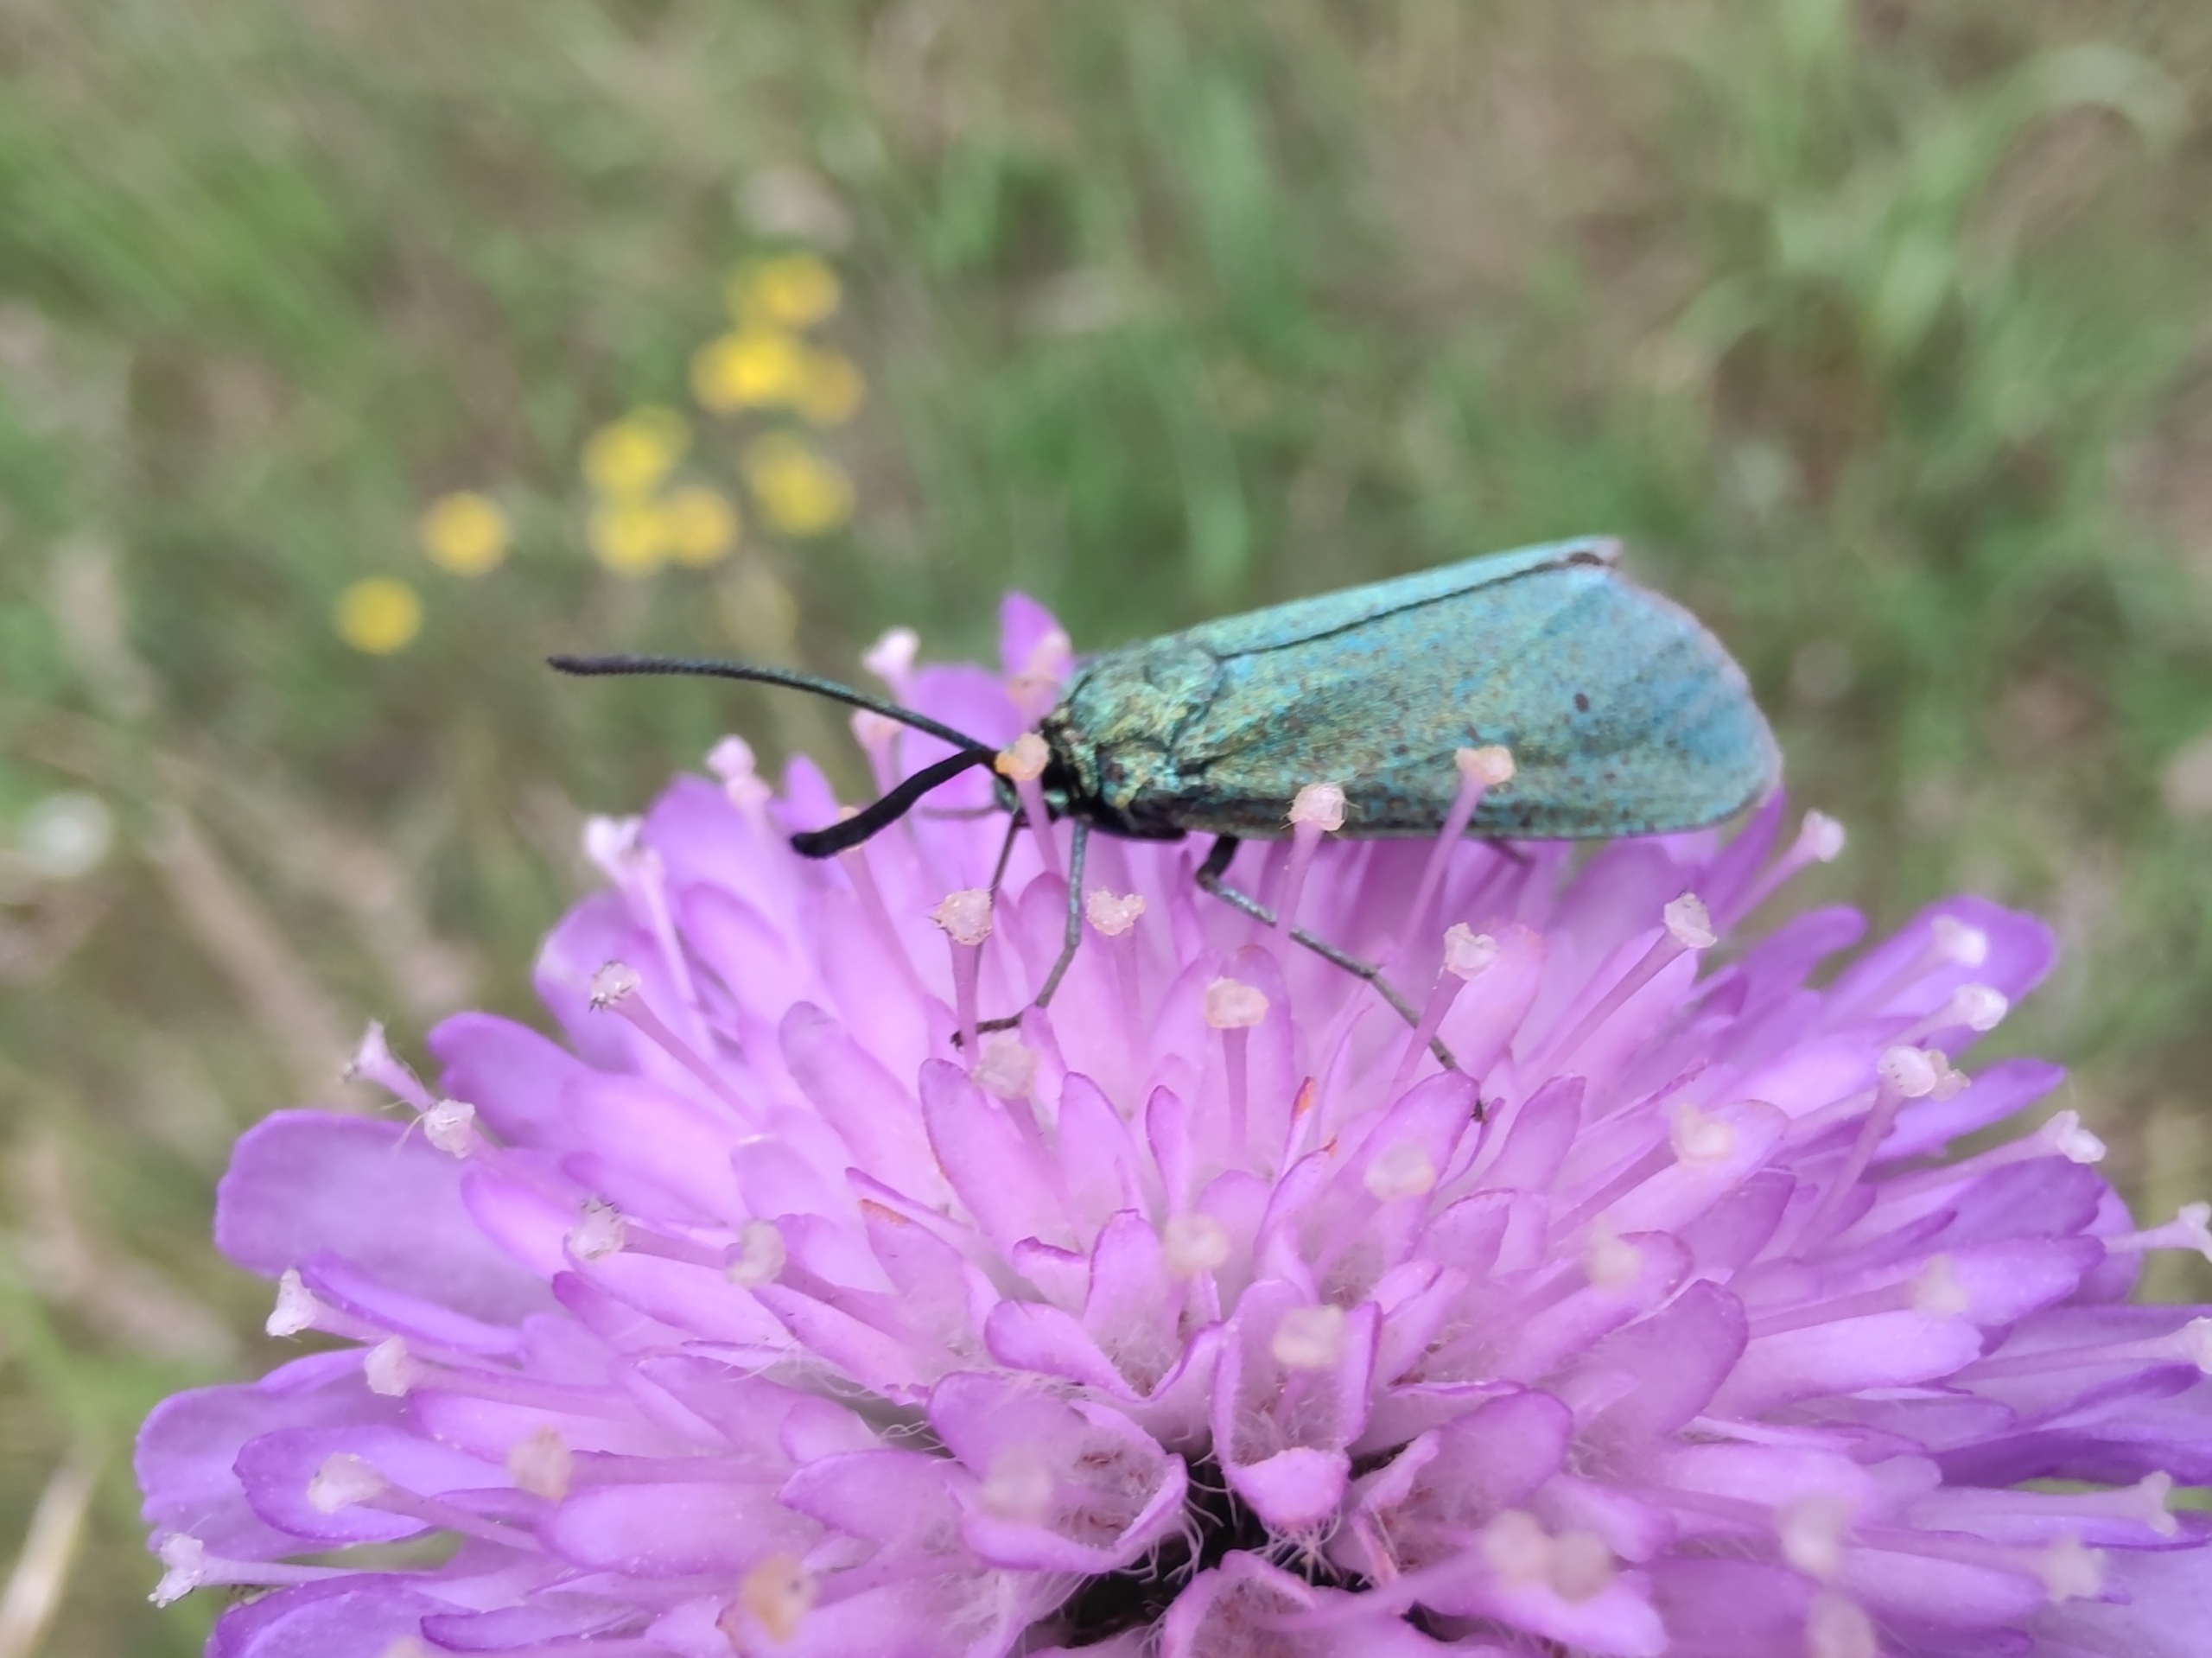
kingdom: Animalia
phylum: Arthropoda
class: Insecta
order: Lepidoptera
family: Zygaenidae
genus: Adscita
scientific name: Adscita statices
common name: Metalvinge
